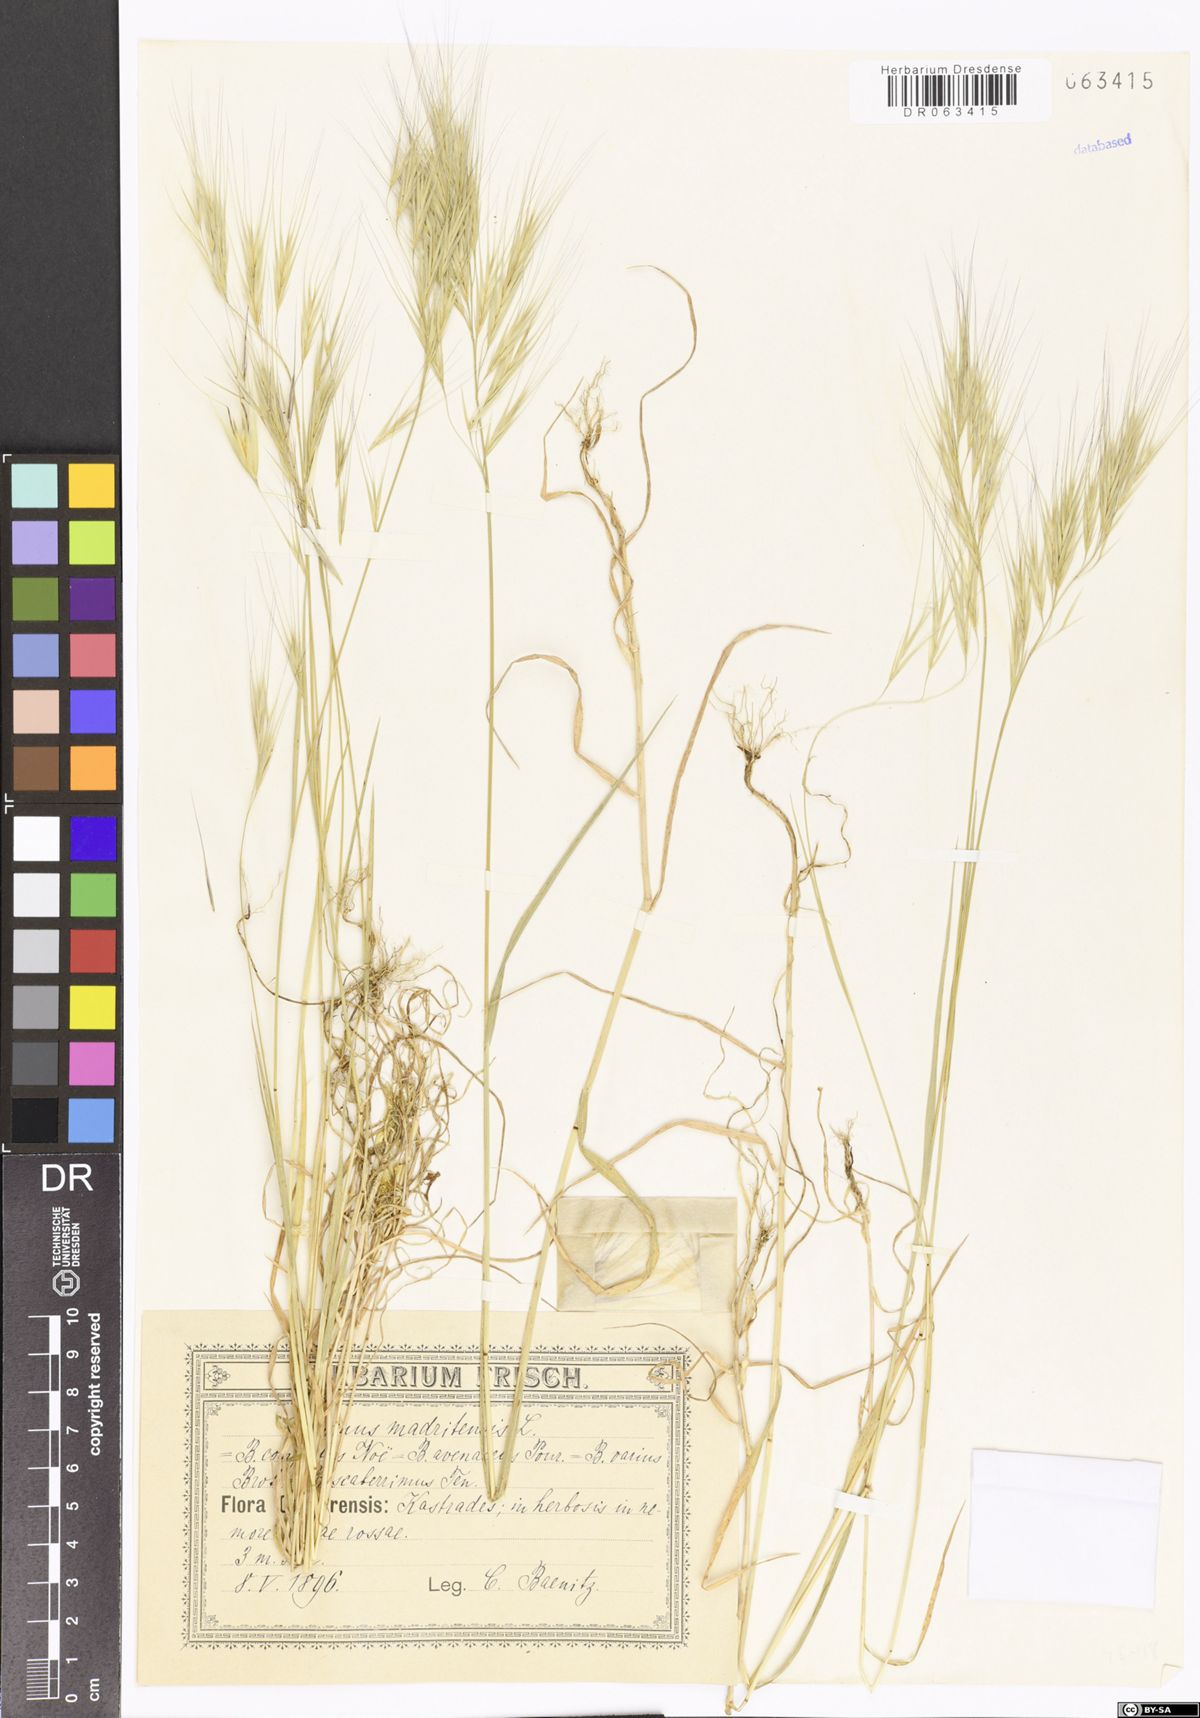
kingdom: Plantae
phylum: Tracheophyta
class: Liliopsida
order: Poales
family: Poaceae
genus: Bromus
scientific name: Bromus madritensis
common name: Compact brome
